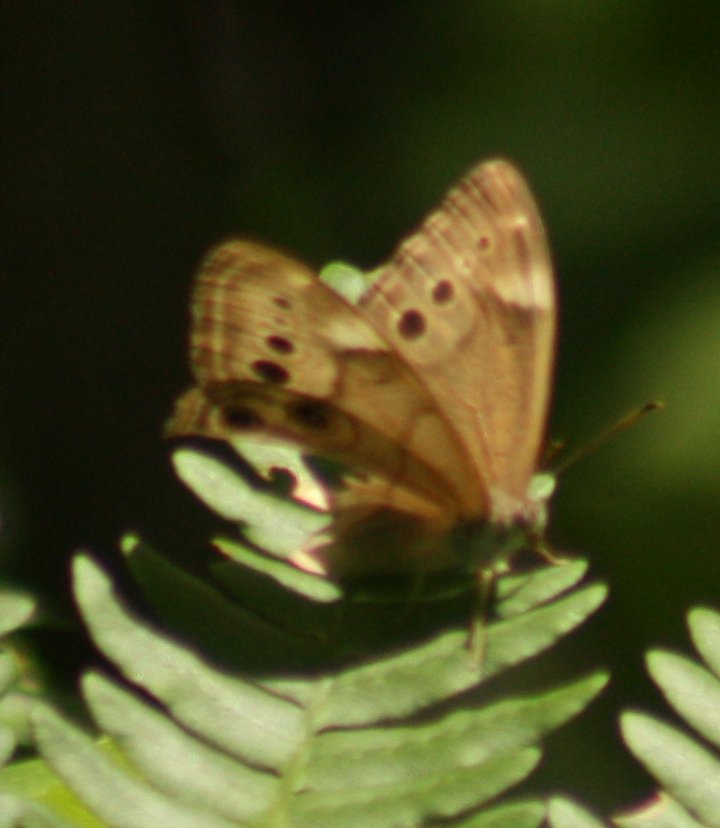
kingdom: Animalia
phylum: Arthropoda
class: Insecta
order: Lepidoptera
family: Nymphalidae
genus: Lethe
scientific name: Lethe anthedon
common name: Northern Pearly-Eye
